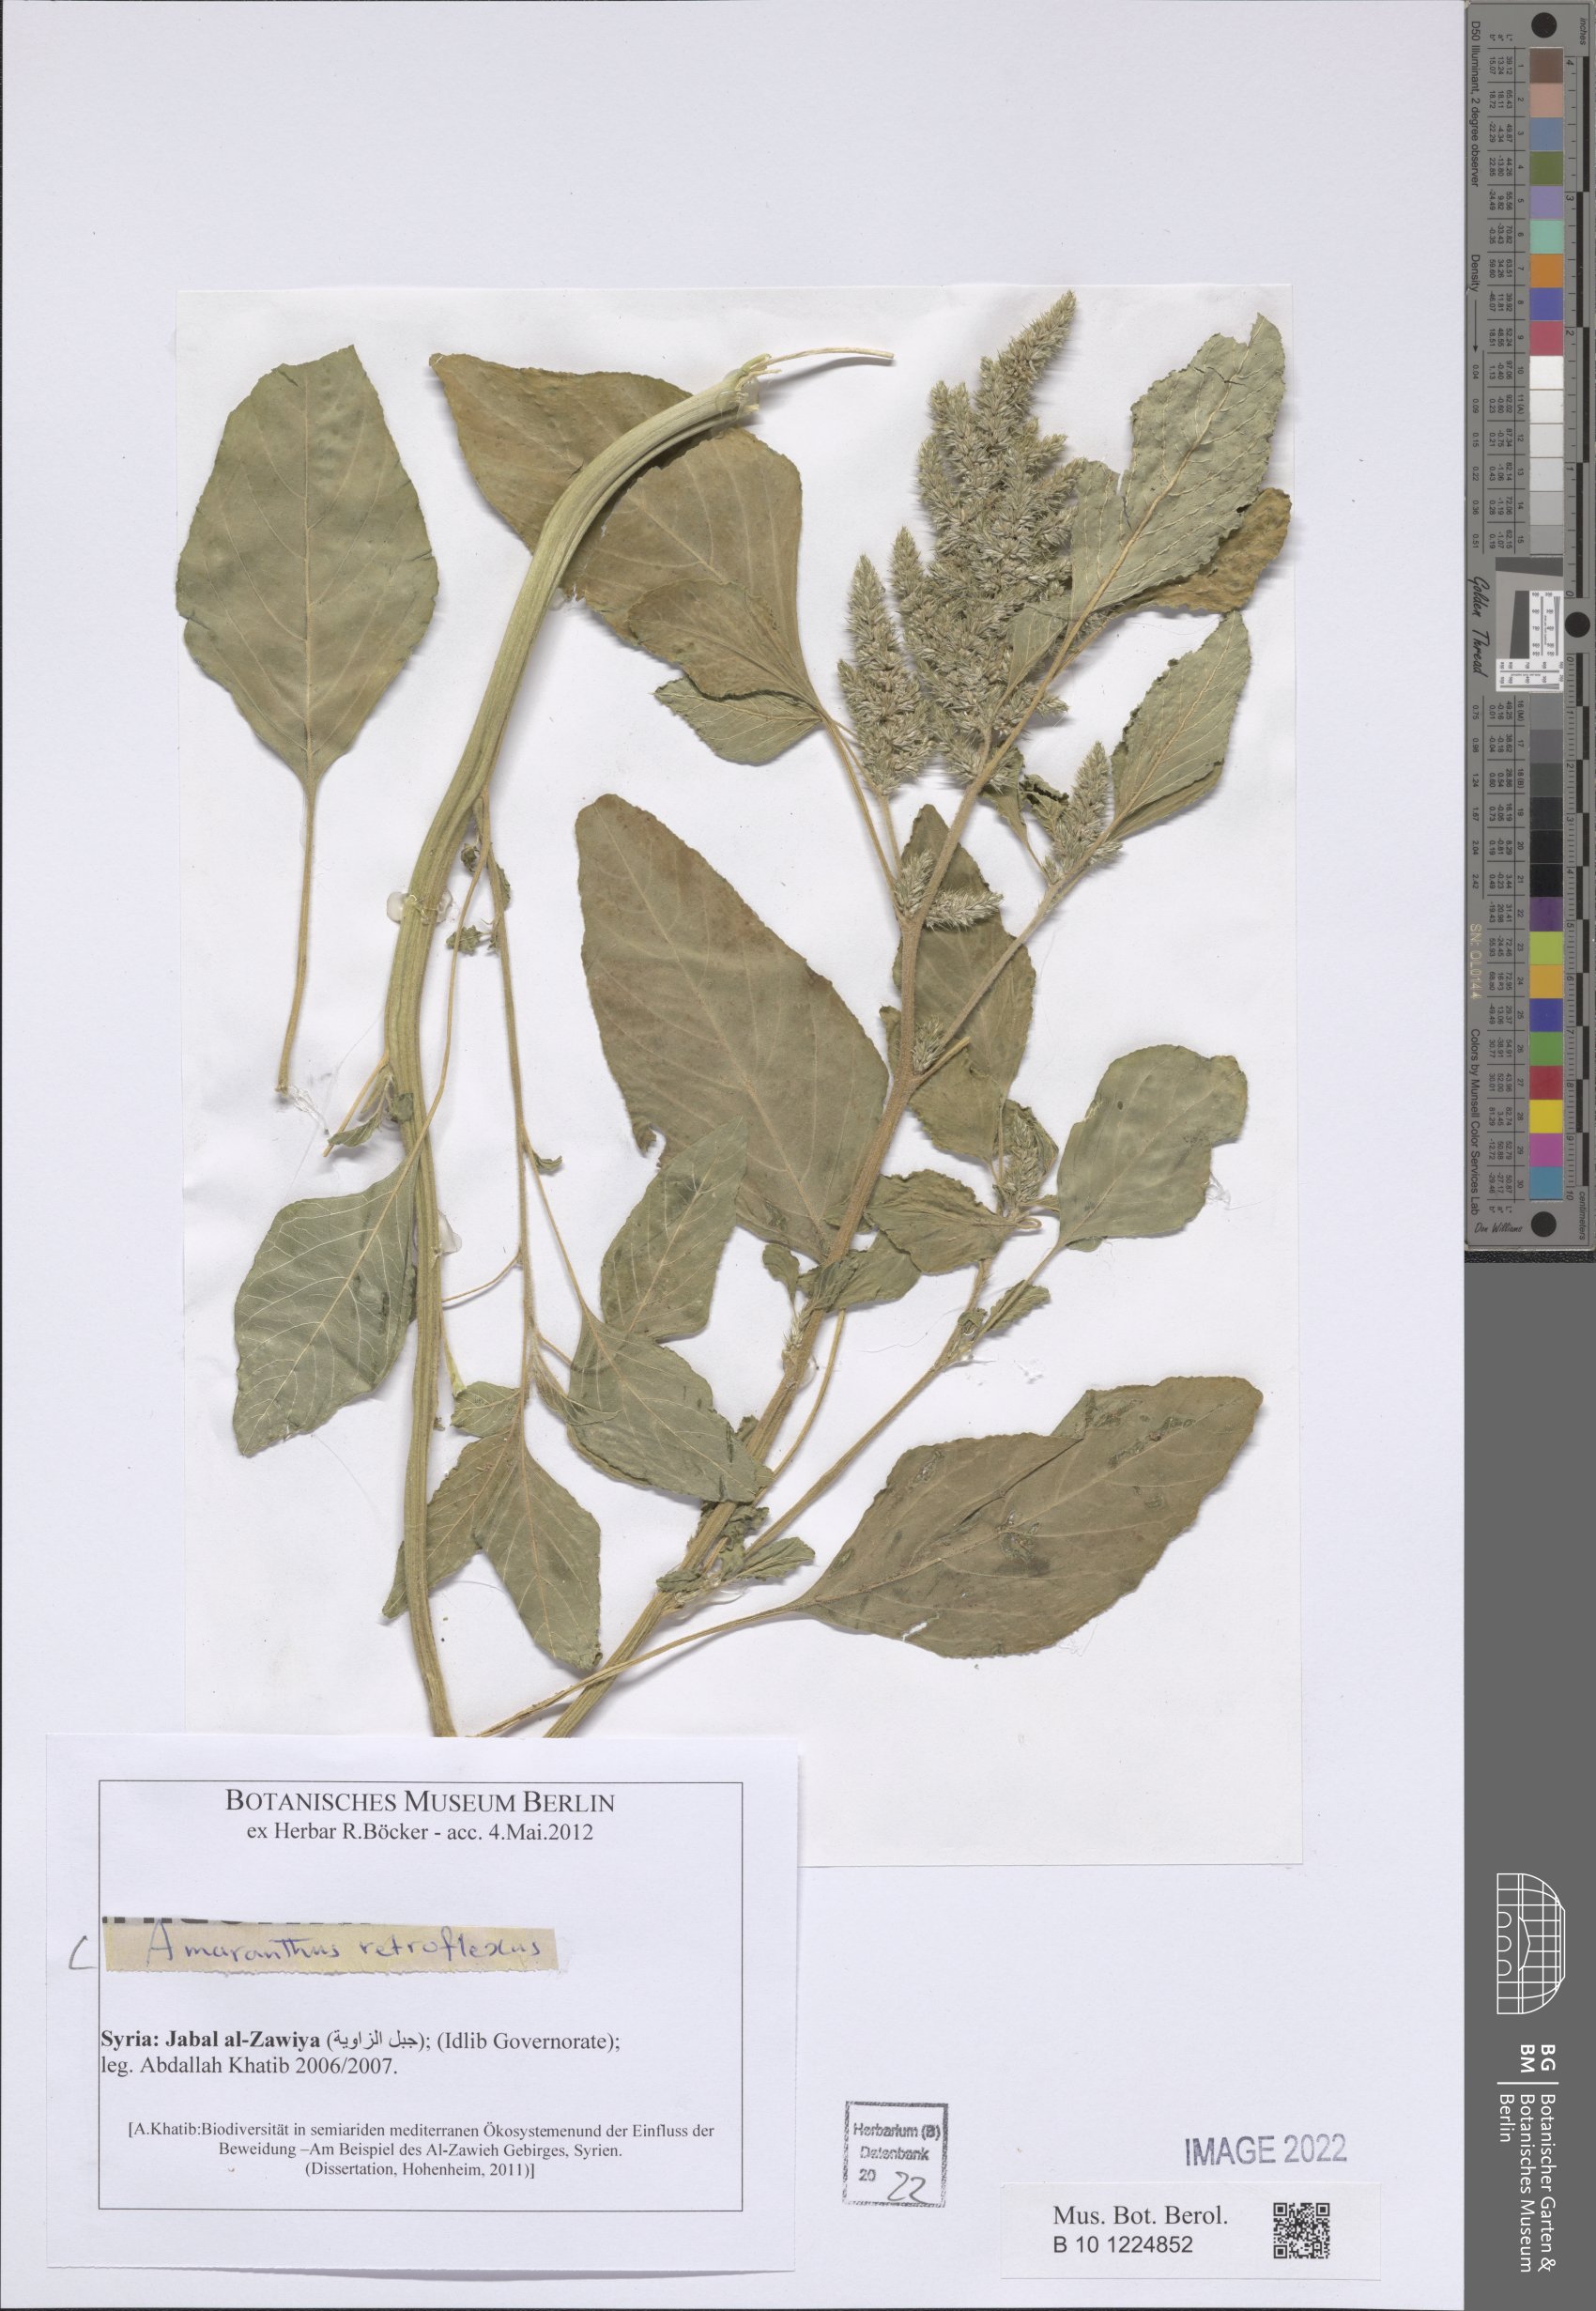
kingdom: Plantae
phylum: Tracheophyta
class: Magnoliopsida
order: Caryophyllales
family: Amaranthaceae
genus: Amaranthus
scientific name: Amaranthus retroflexus
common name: Redroot amaranth
